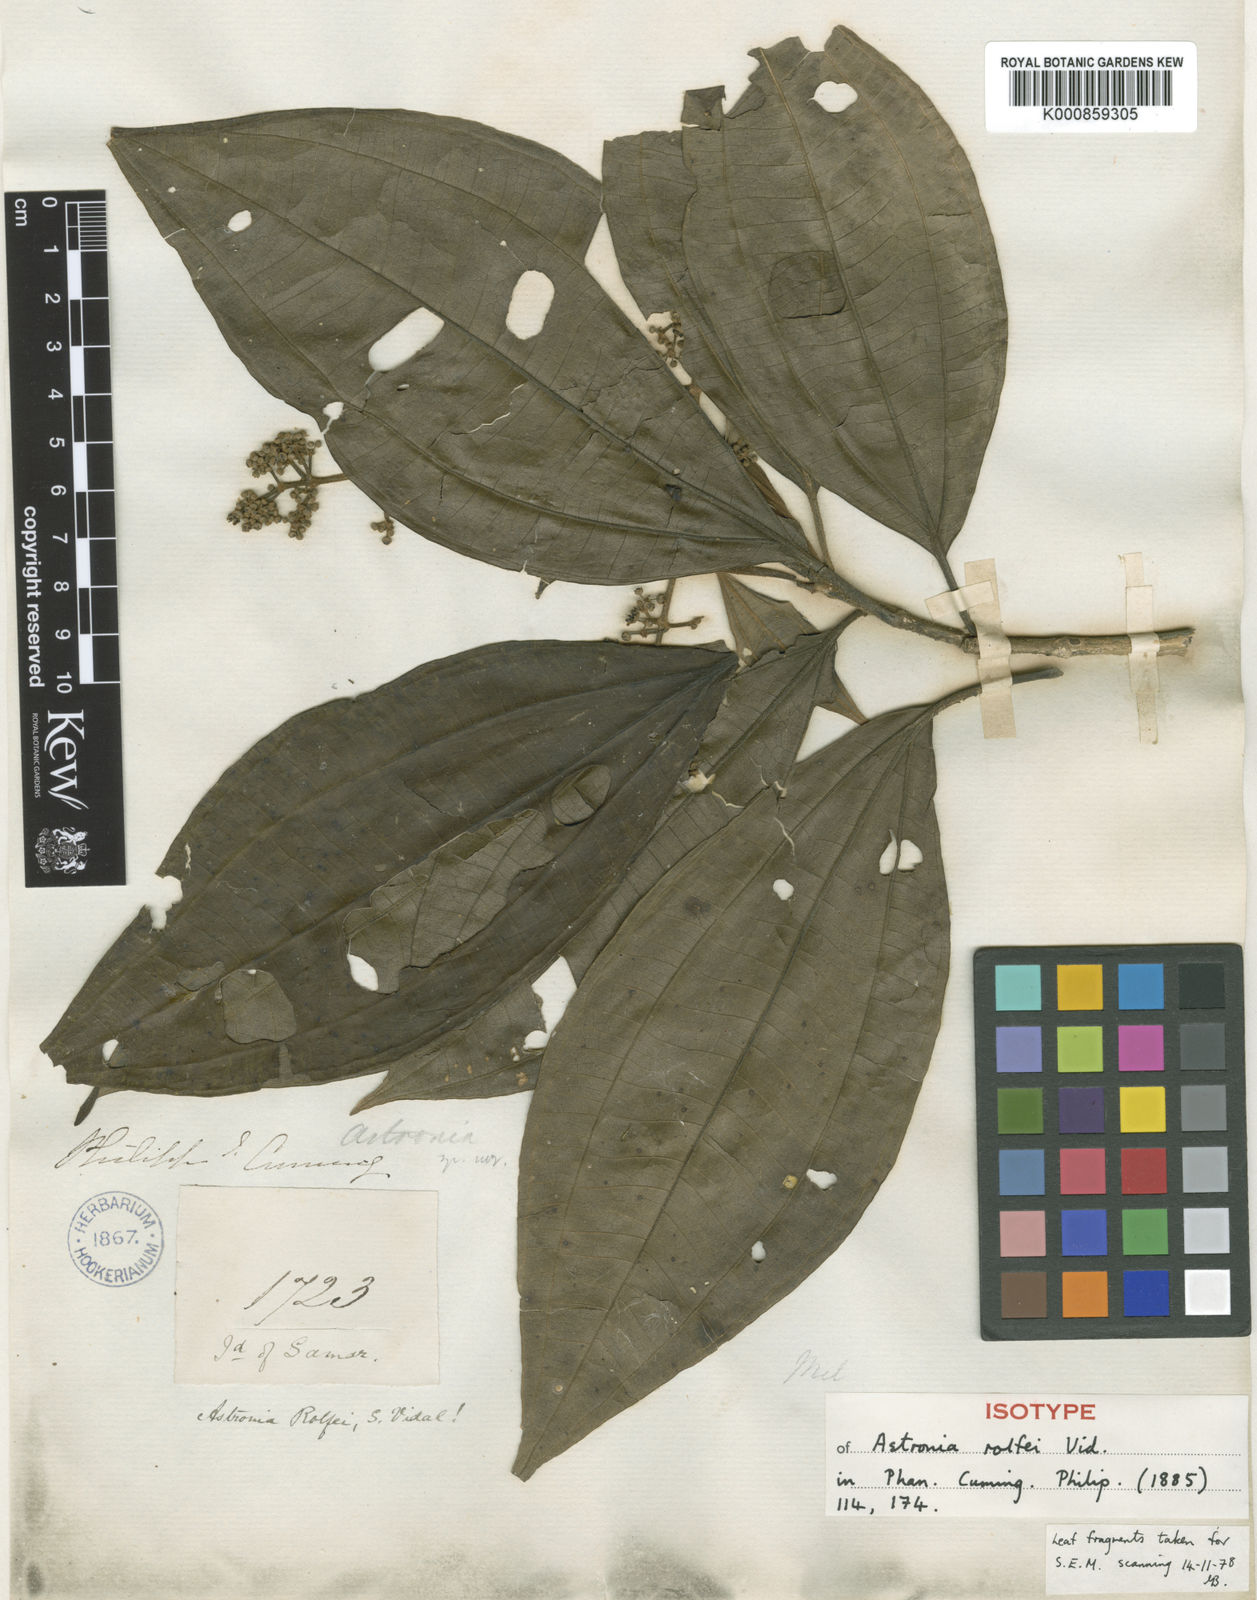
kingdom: Plantae
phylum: Tracheophyta
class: Magnoliopsida
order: Myrtales
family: Melastomataceae
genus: Astronia
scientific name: Astronia rolfei
